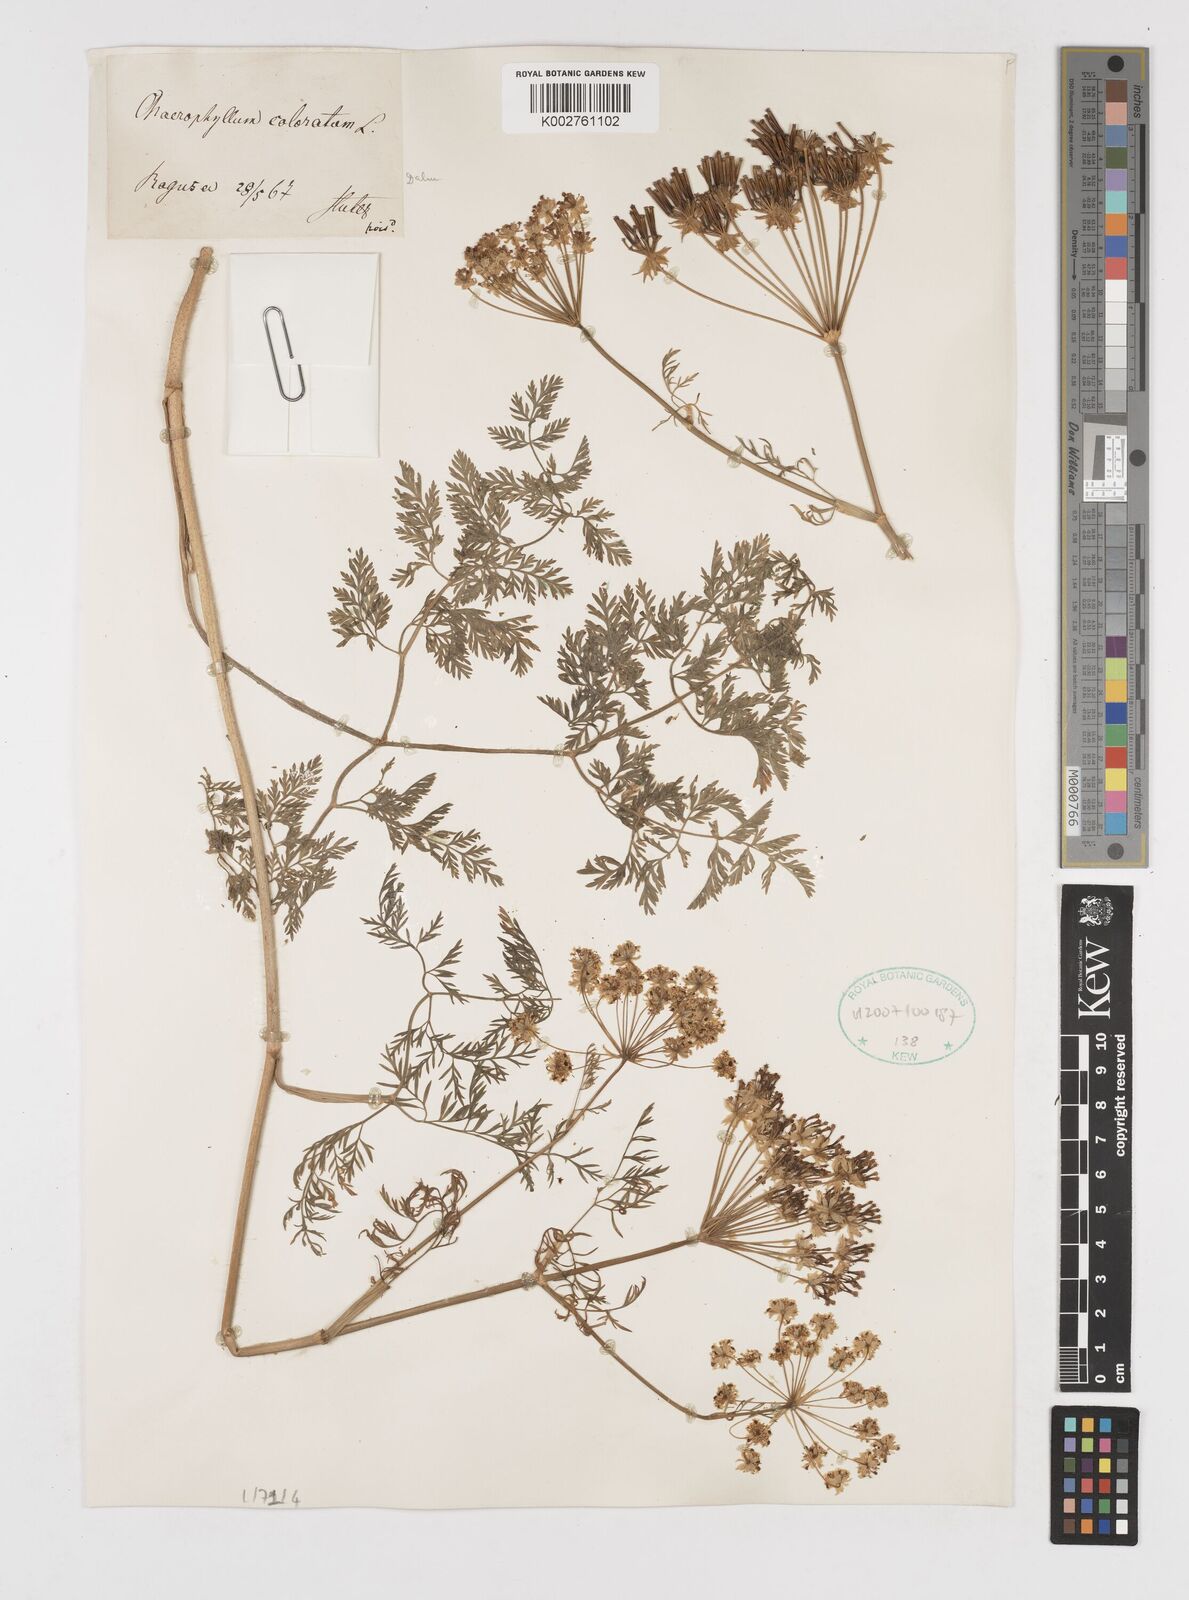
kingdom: Plantae
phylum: Tracheophyta
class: Magnoliopsida
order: Apiales
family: Apiaceae
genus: Chaerophyllum
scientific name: Chaerophyllum coloratum
